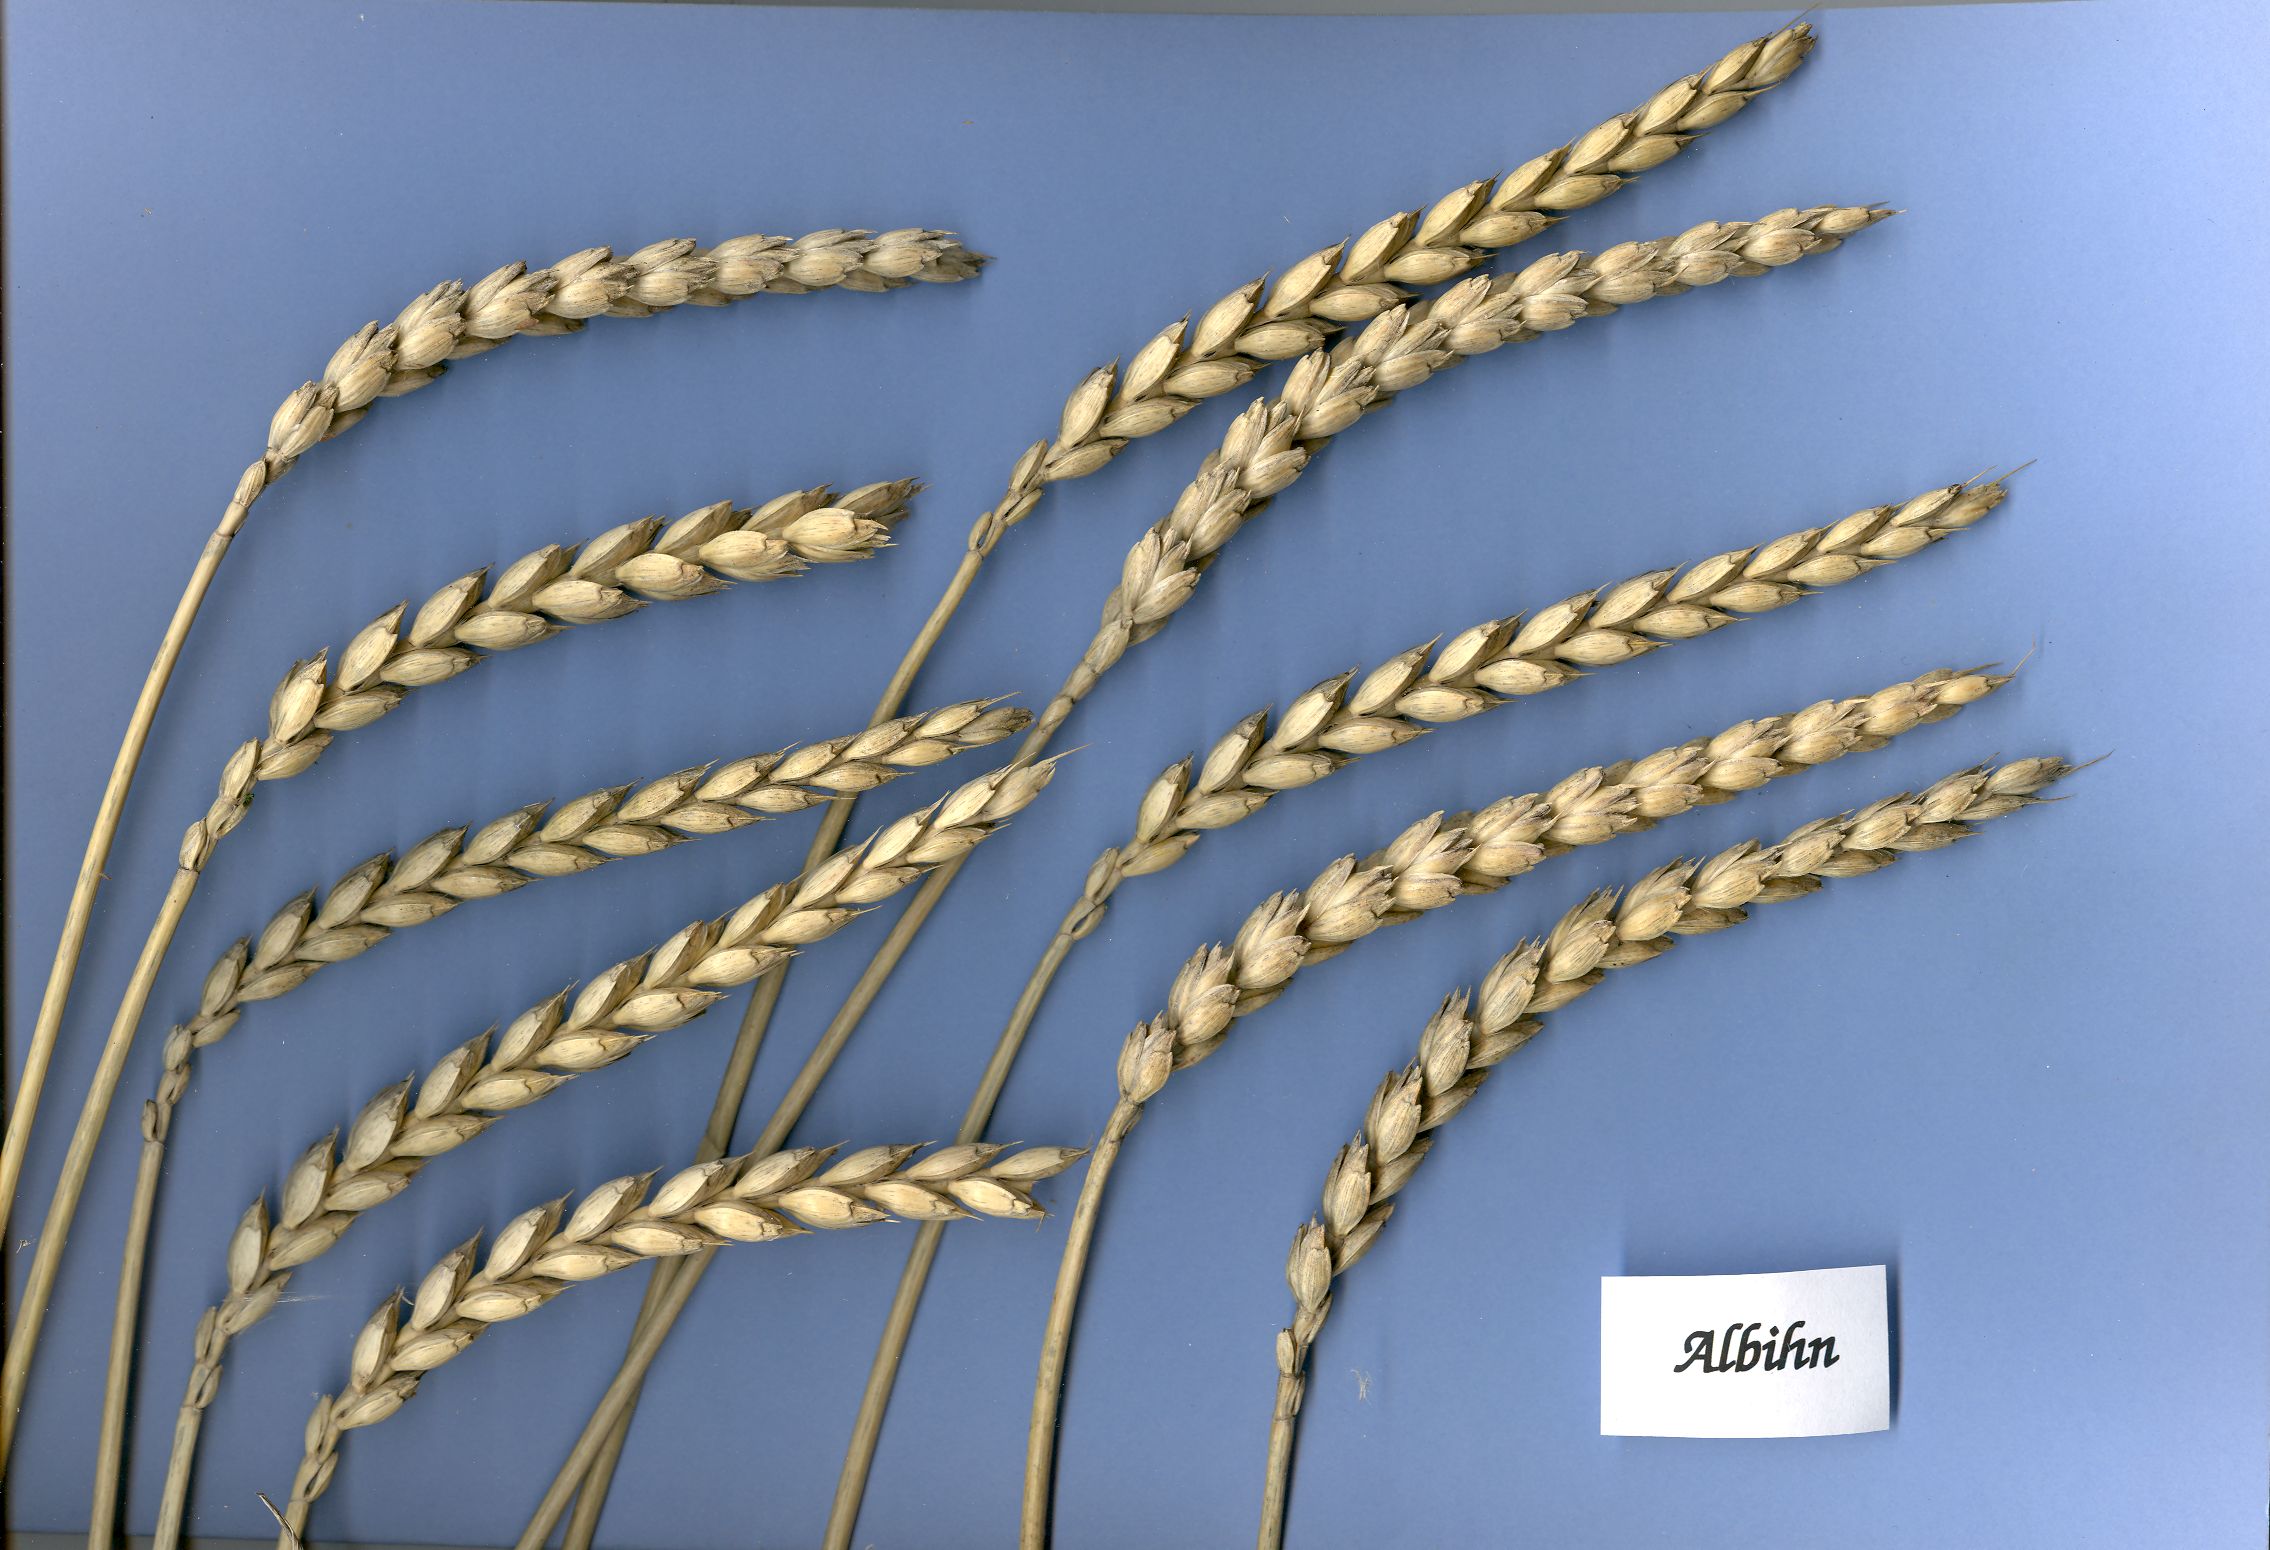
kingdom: Plantae
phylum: Tracheophyta
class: Liliopsida
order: Poales
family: Poaceae
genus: Triticum
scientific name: Triticum aestivum
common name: Common wheat
